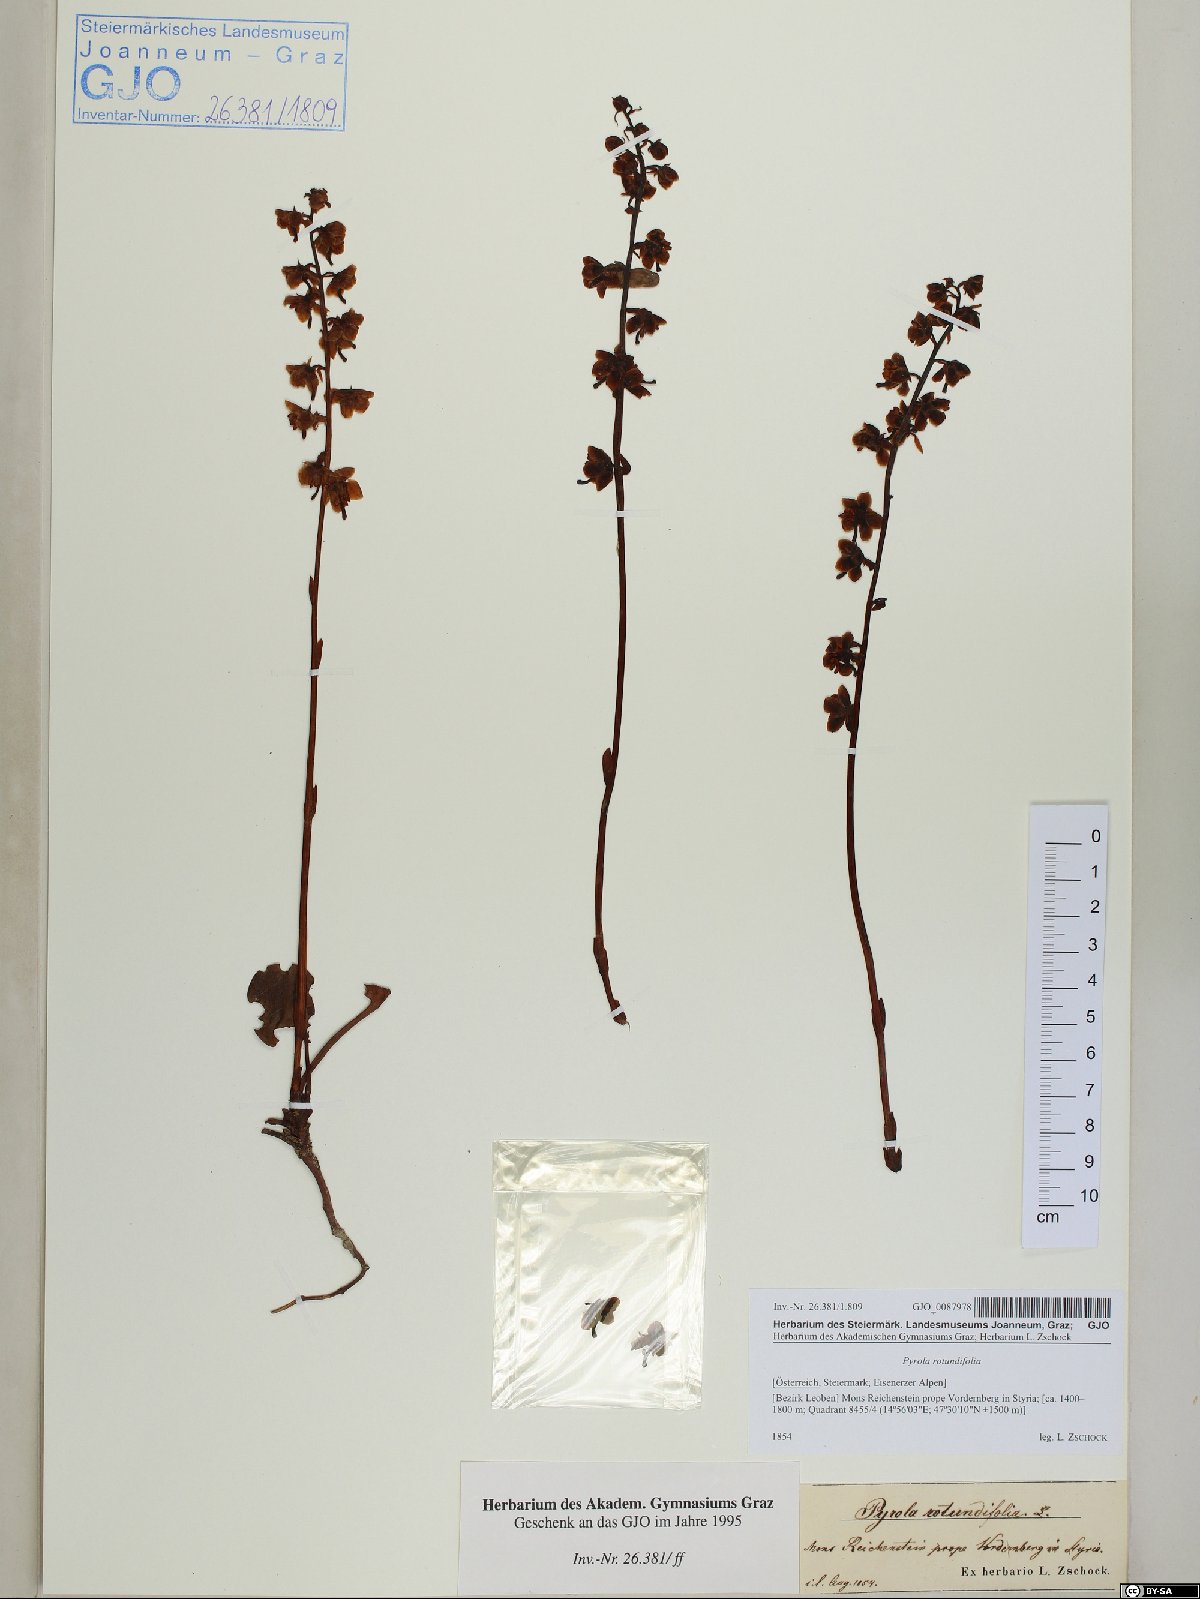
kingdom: Plantae
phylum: Tracheophyta
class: Magnoliopsida
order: Ericales
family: Ericaceae
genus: Pyrola
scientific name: Pyrola rotundifolia
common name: Round-leaved wintergreen
